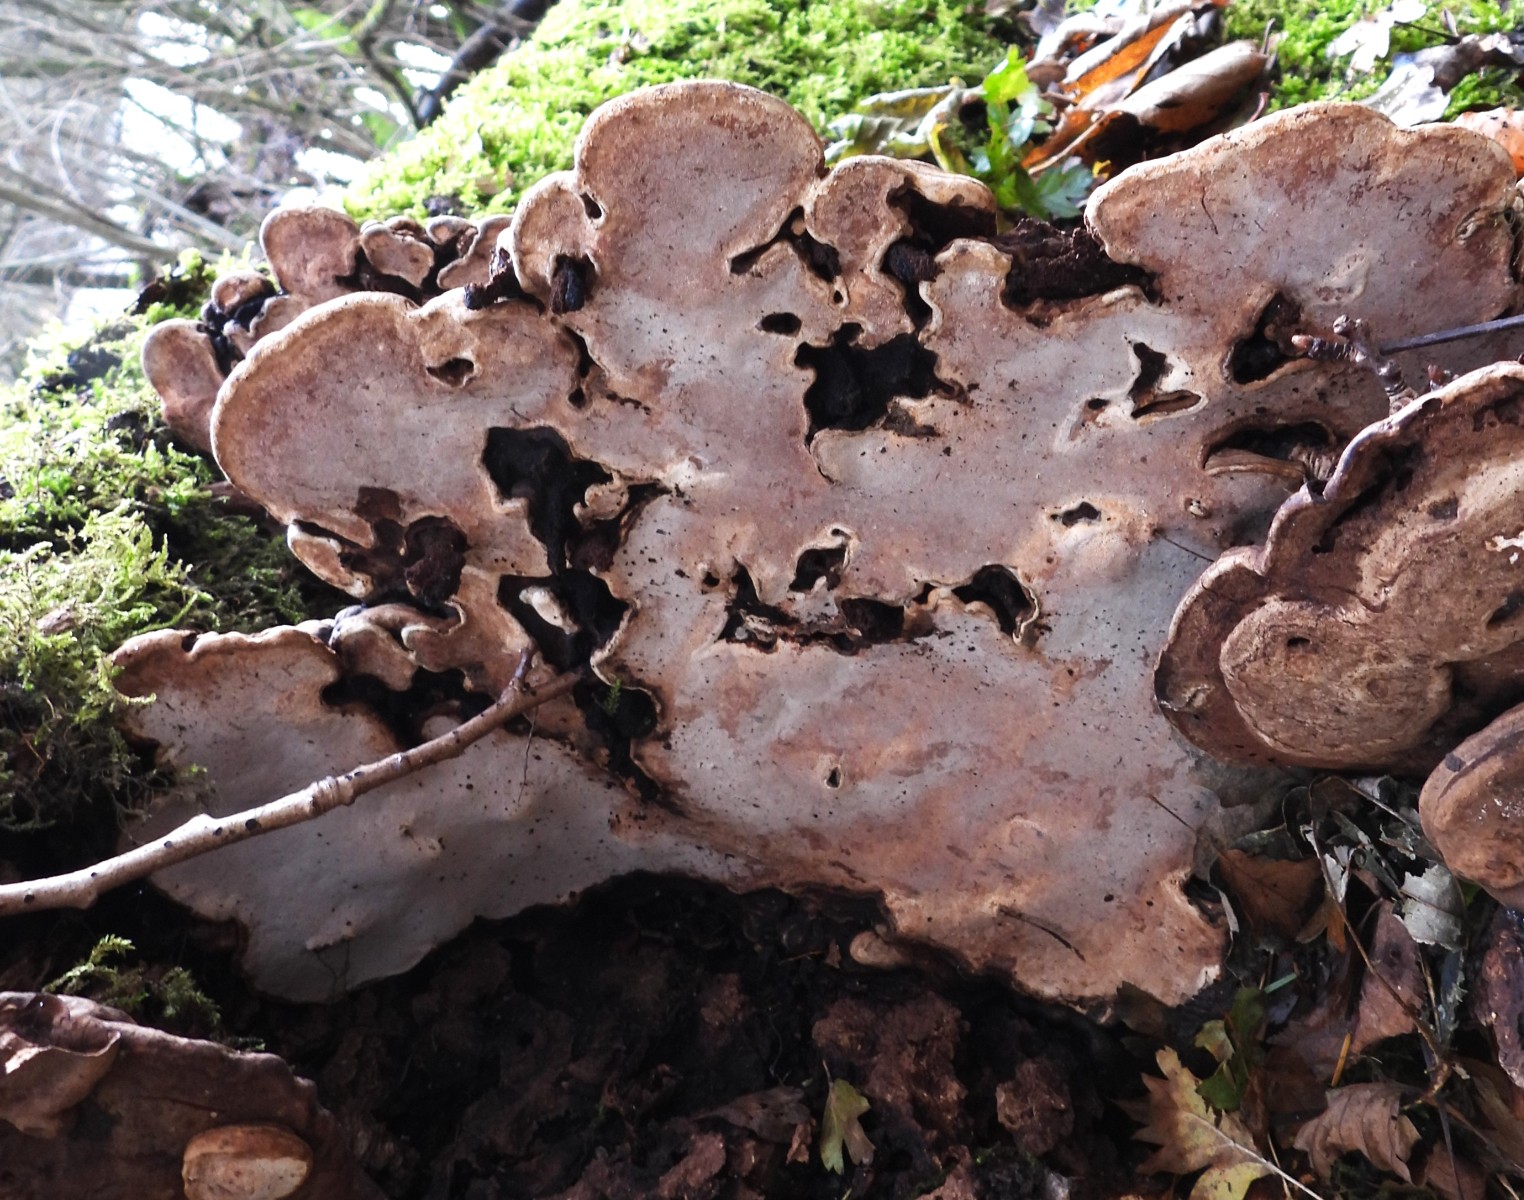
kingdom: Fungi
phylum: Basidiomycota
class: Agaricomycetes
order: Polyporales
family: Polyporaceae
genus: Ganoderma
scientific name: Ganoderma applanatum
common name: flad lakporesvamp
